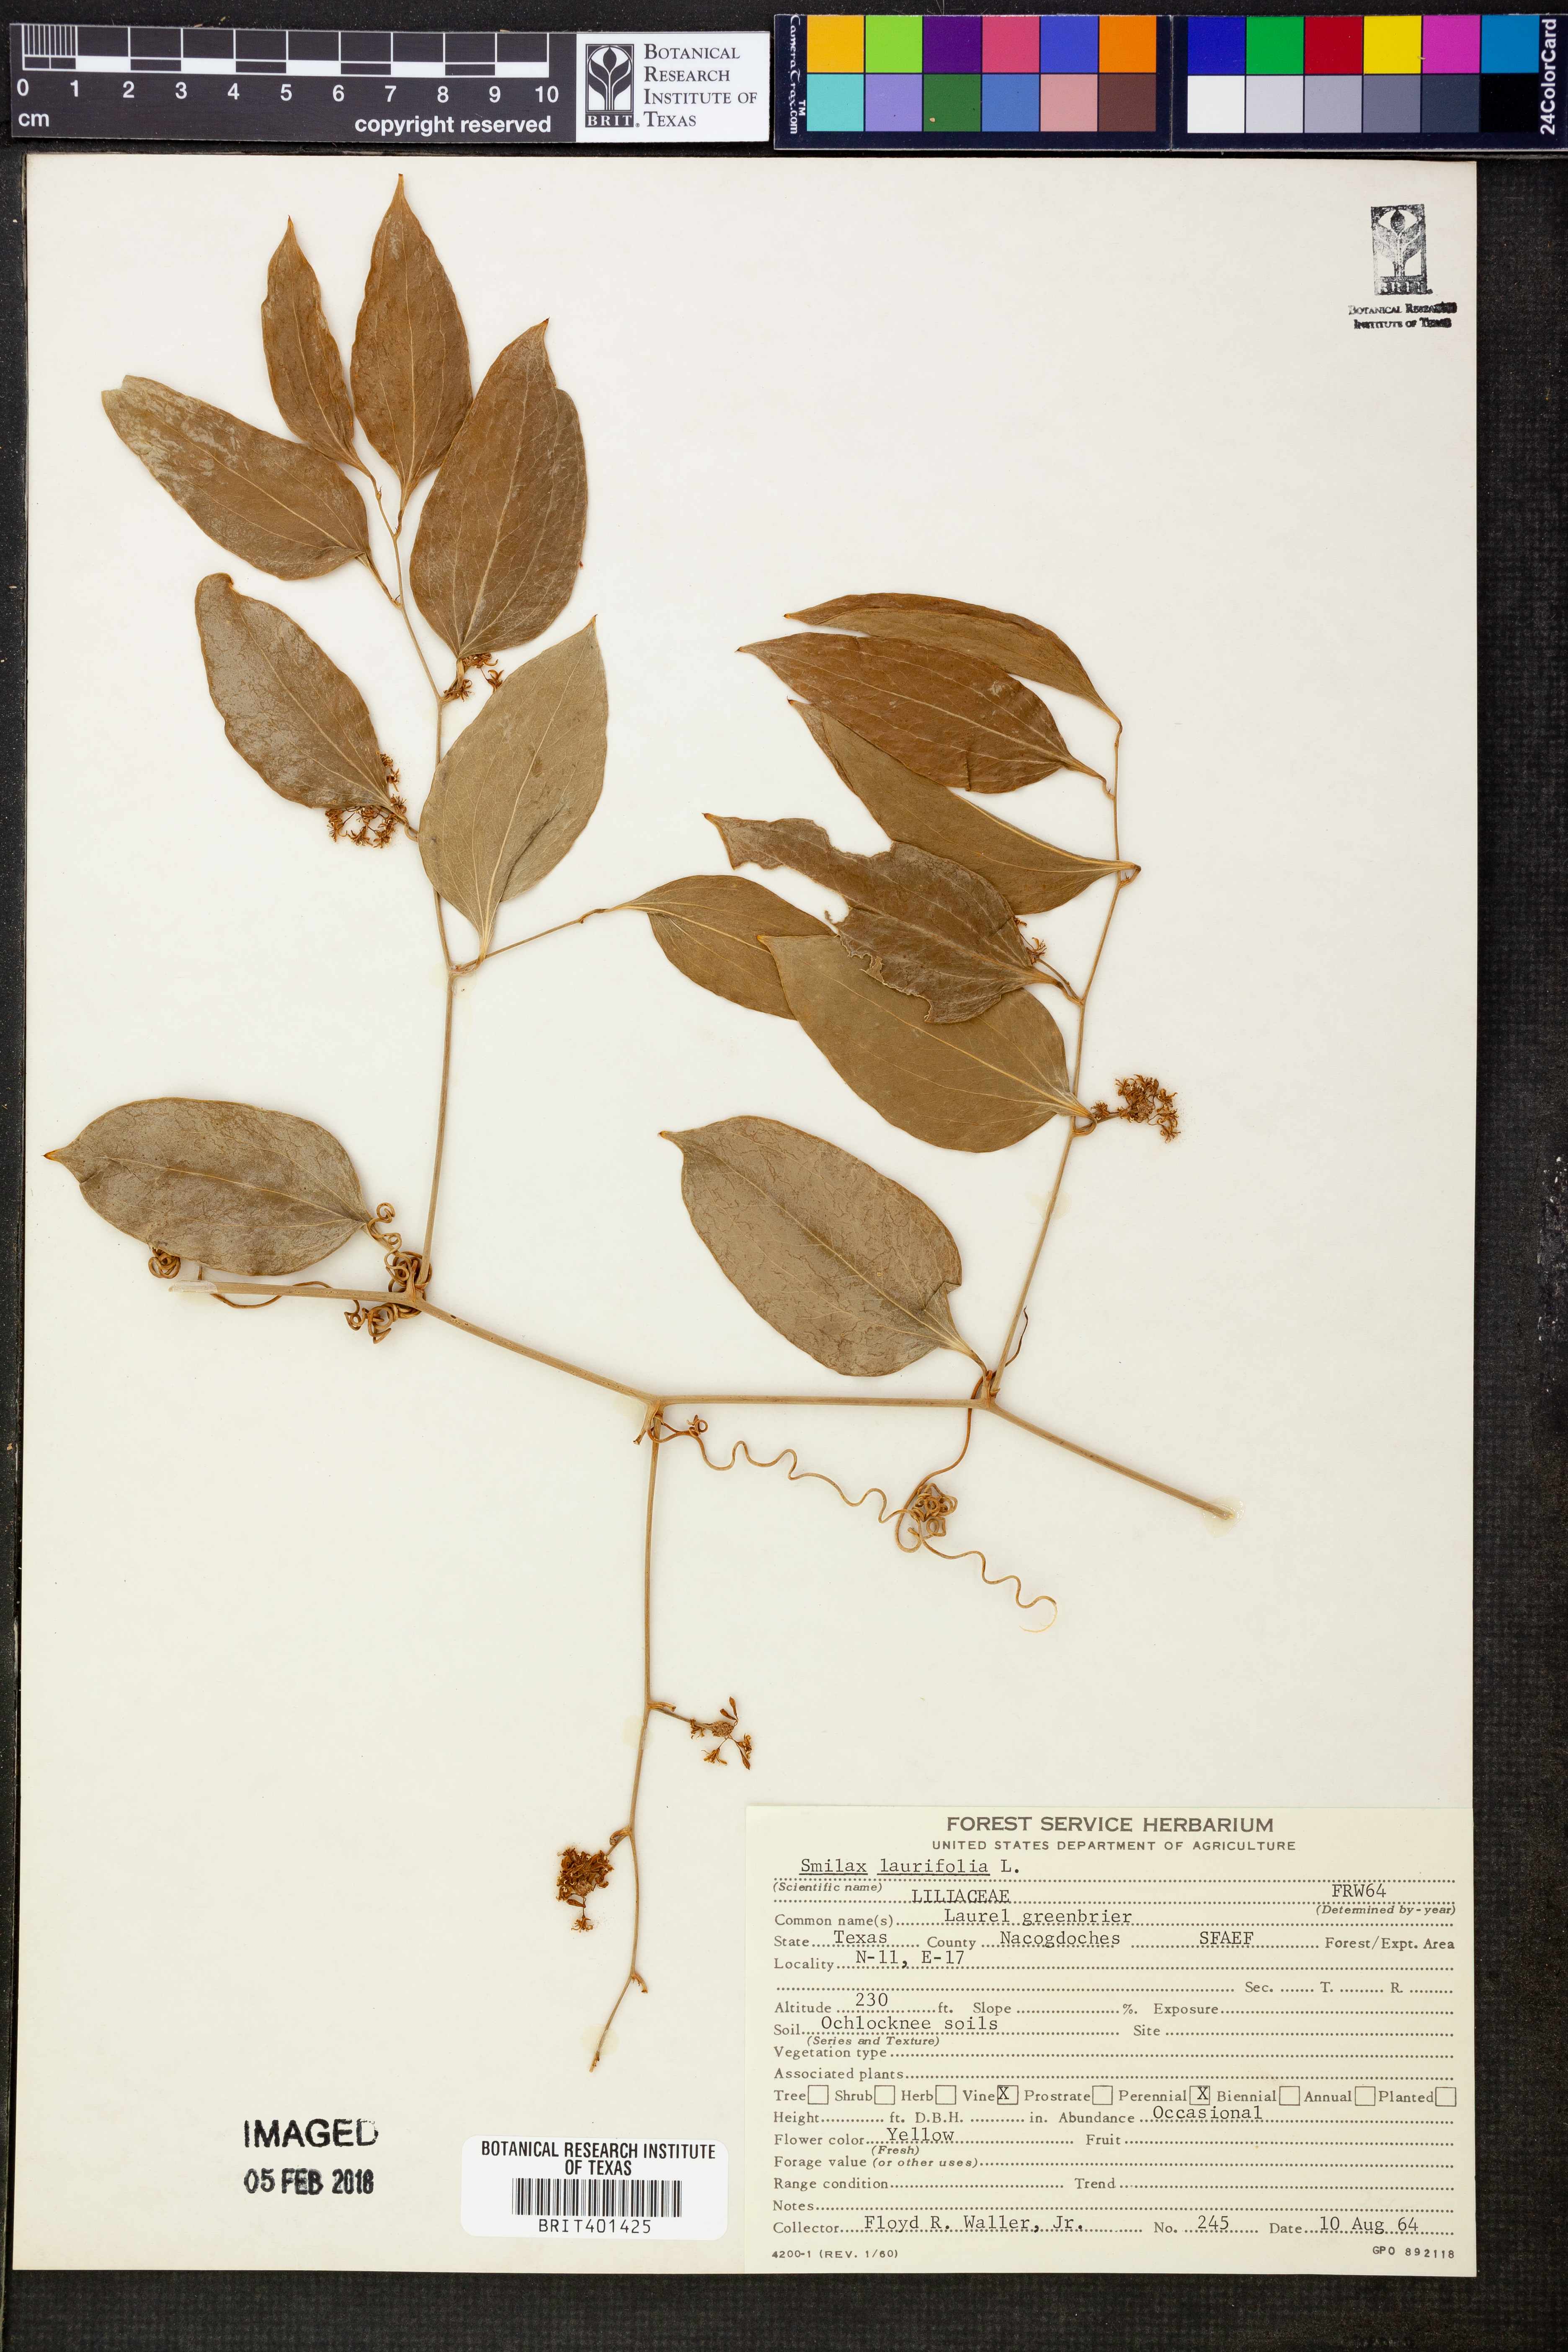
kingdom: Plantae
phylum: Tracheophyta
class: Liliopsida
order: Liliales
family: Smilacaceae
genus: Smilax
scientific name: Smilax laurifolia
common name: Bamboovine
